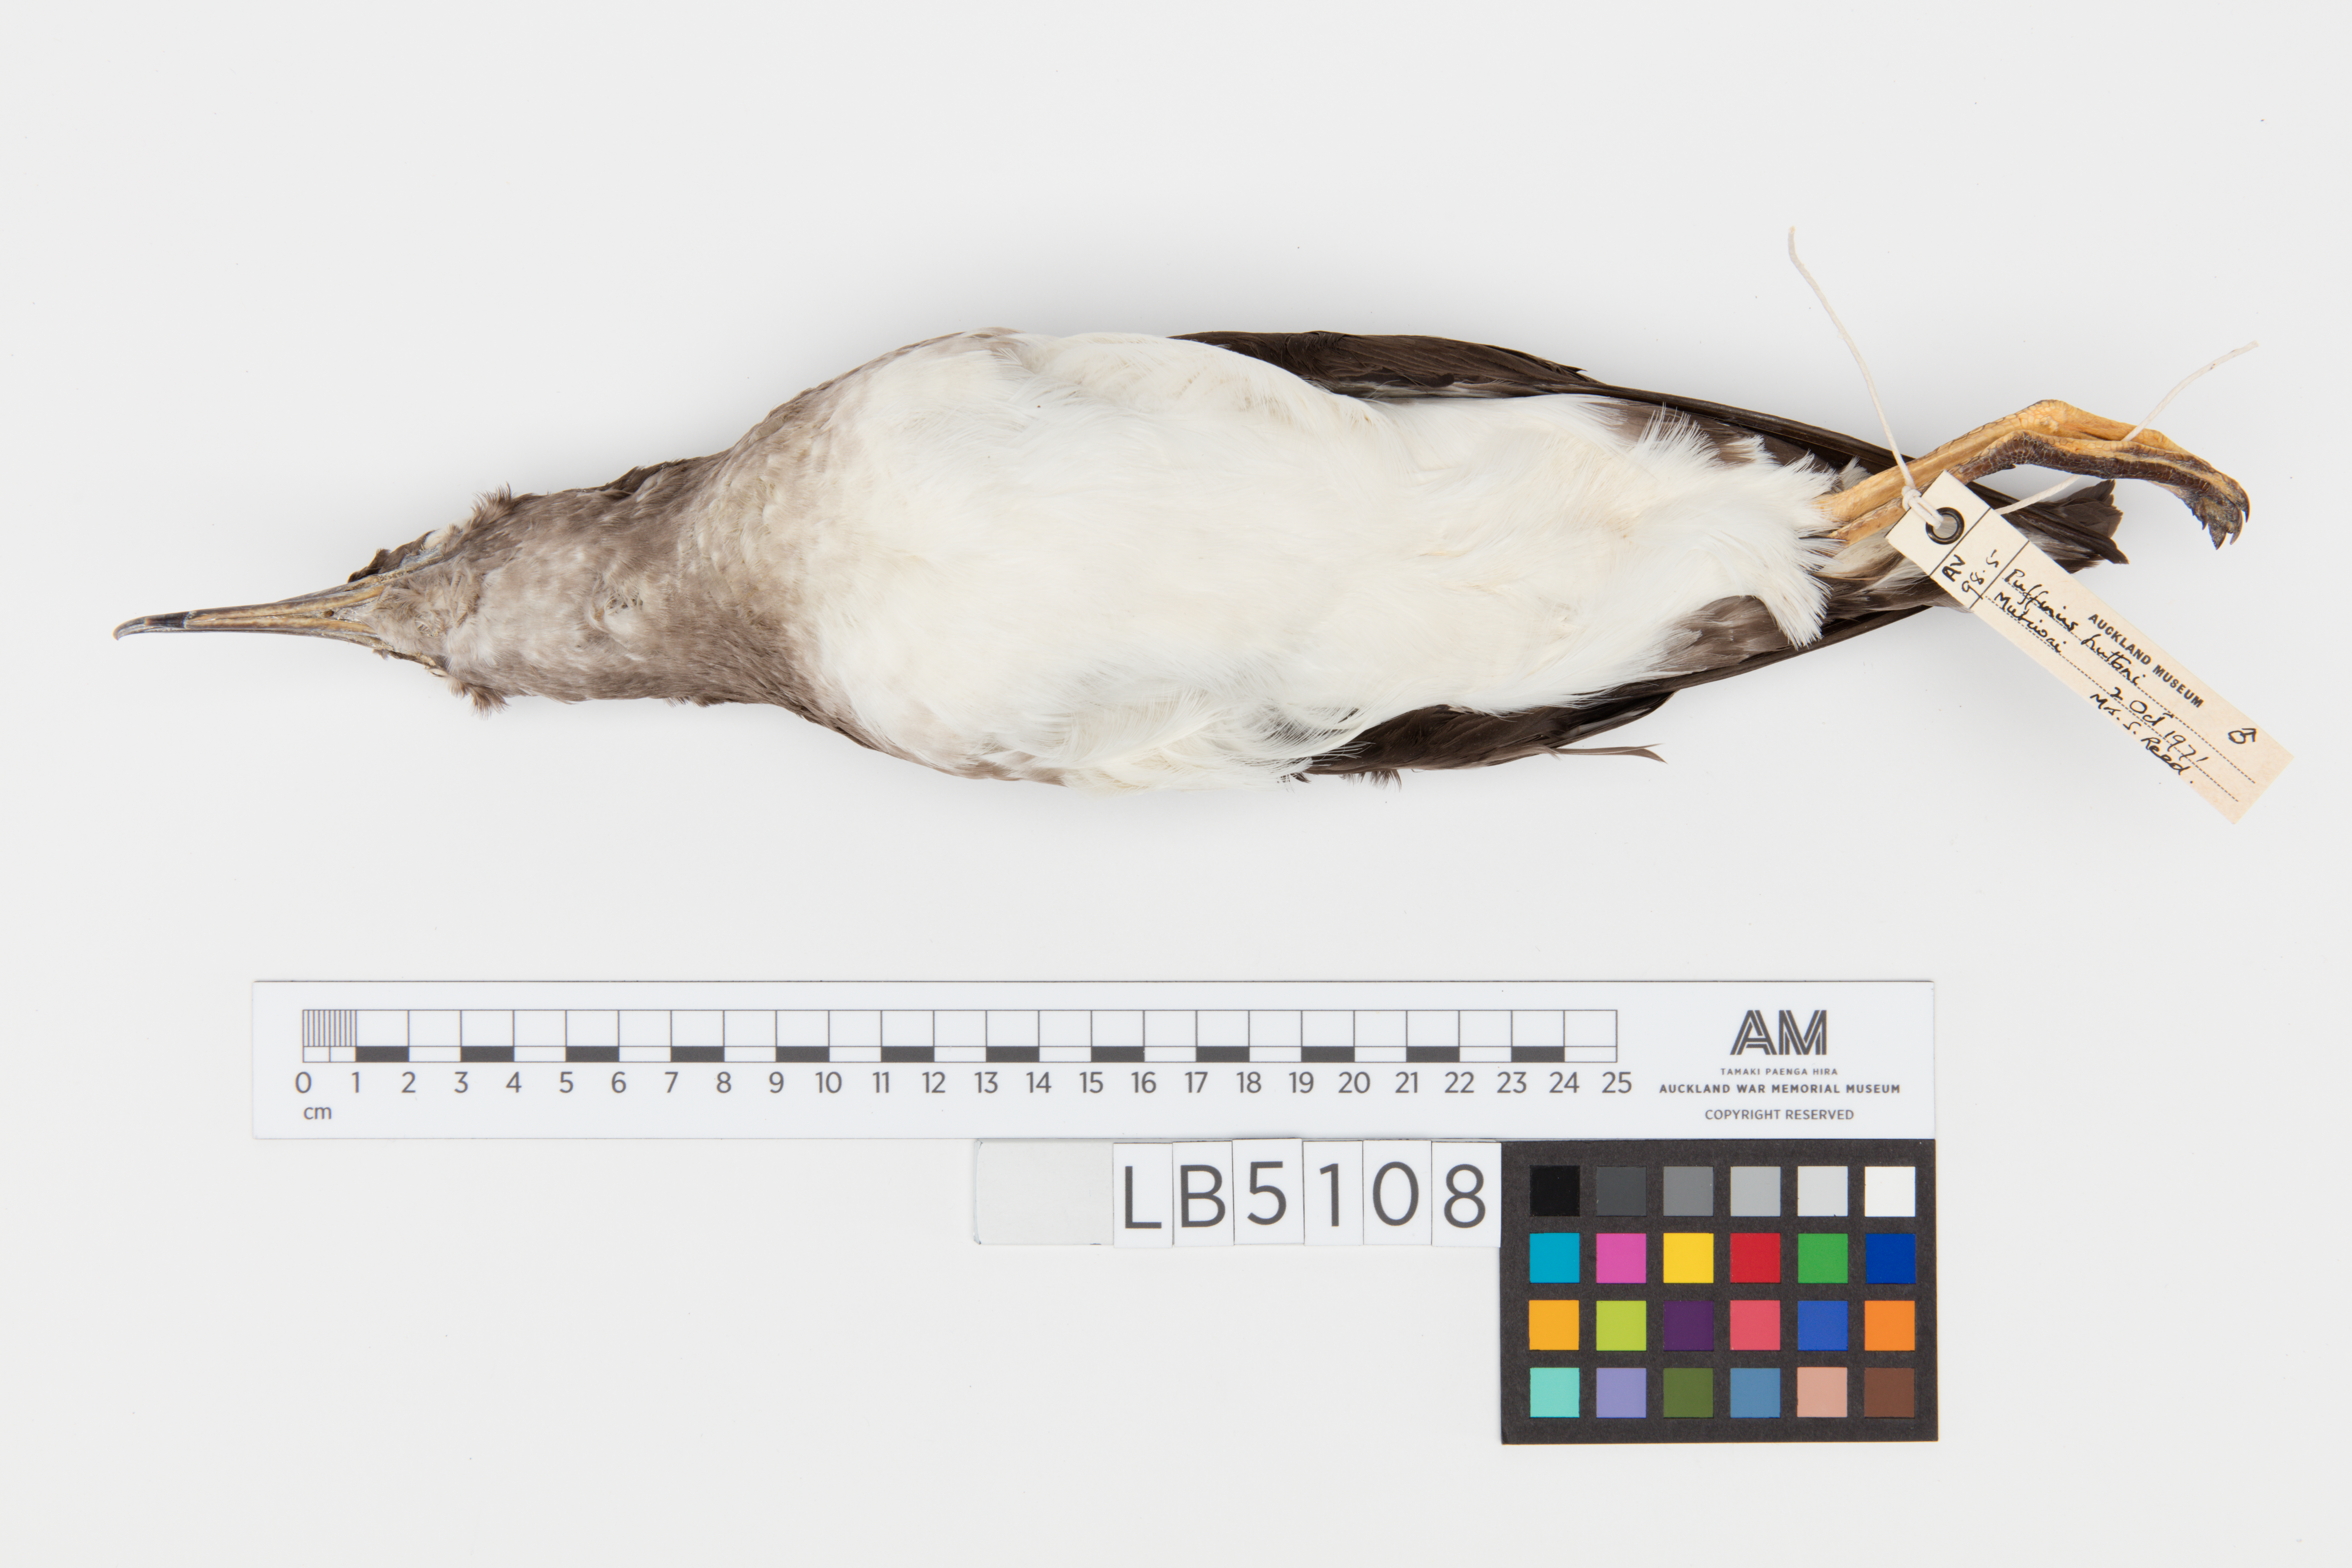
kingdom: Animalia
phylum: Chordata
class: Aves
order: Procellariiformes
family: Procellariidae
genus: Puffinus
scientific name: Puffinus huttoni
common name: Hutton's shearwater
